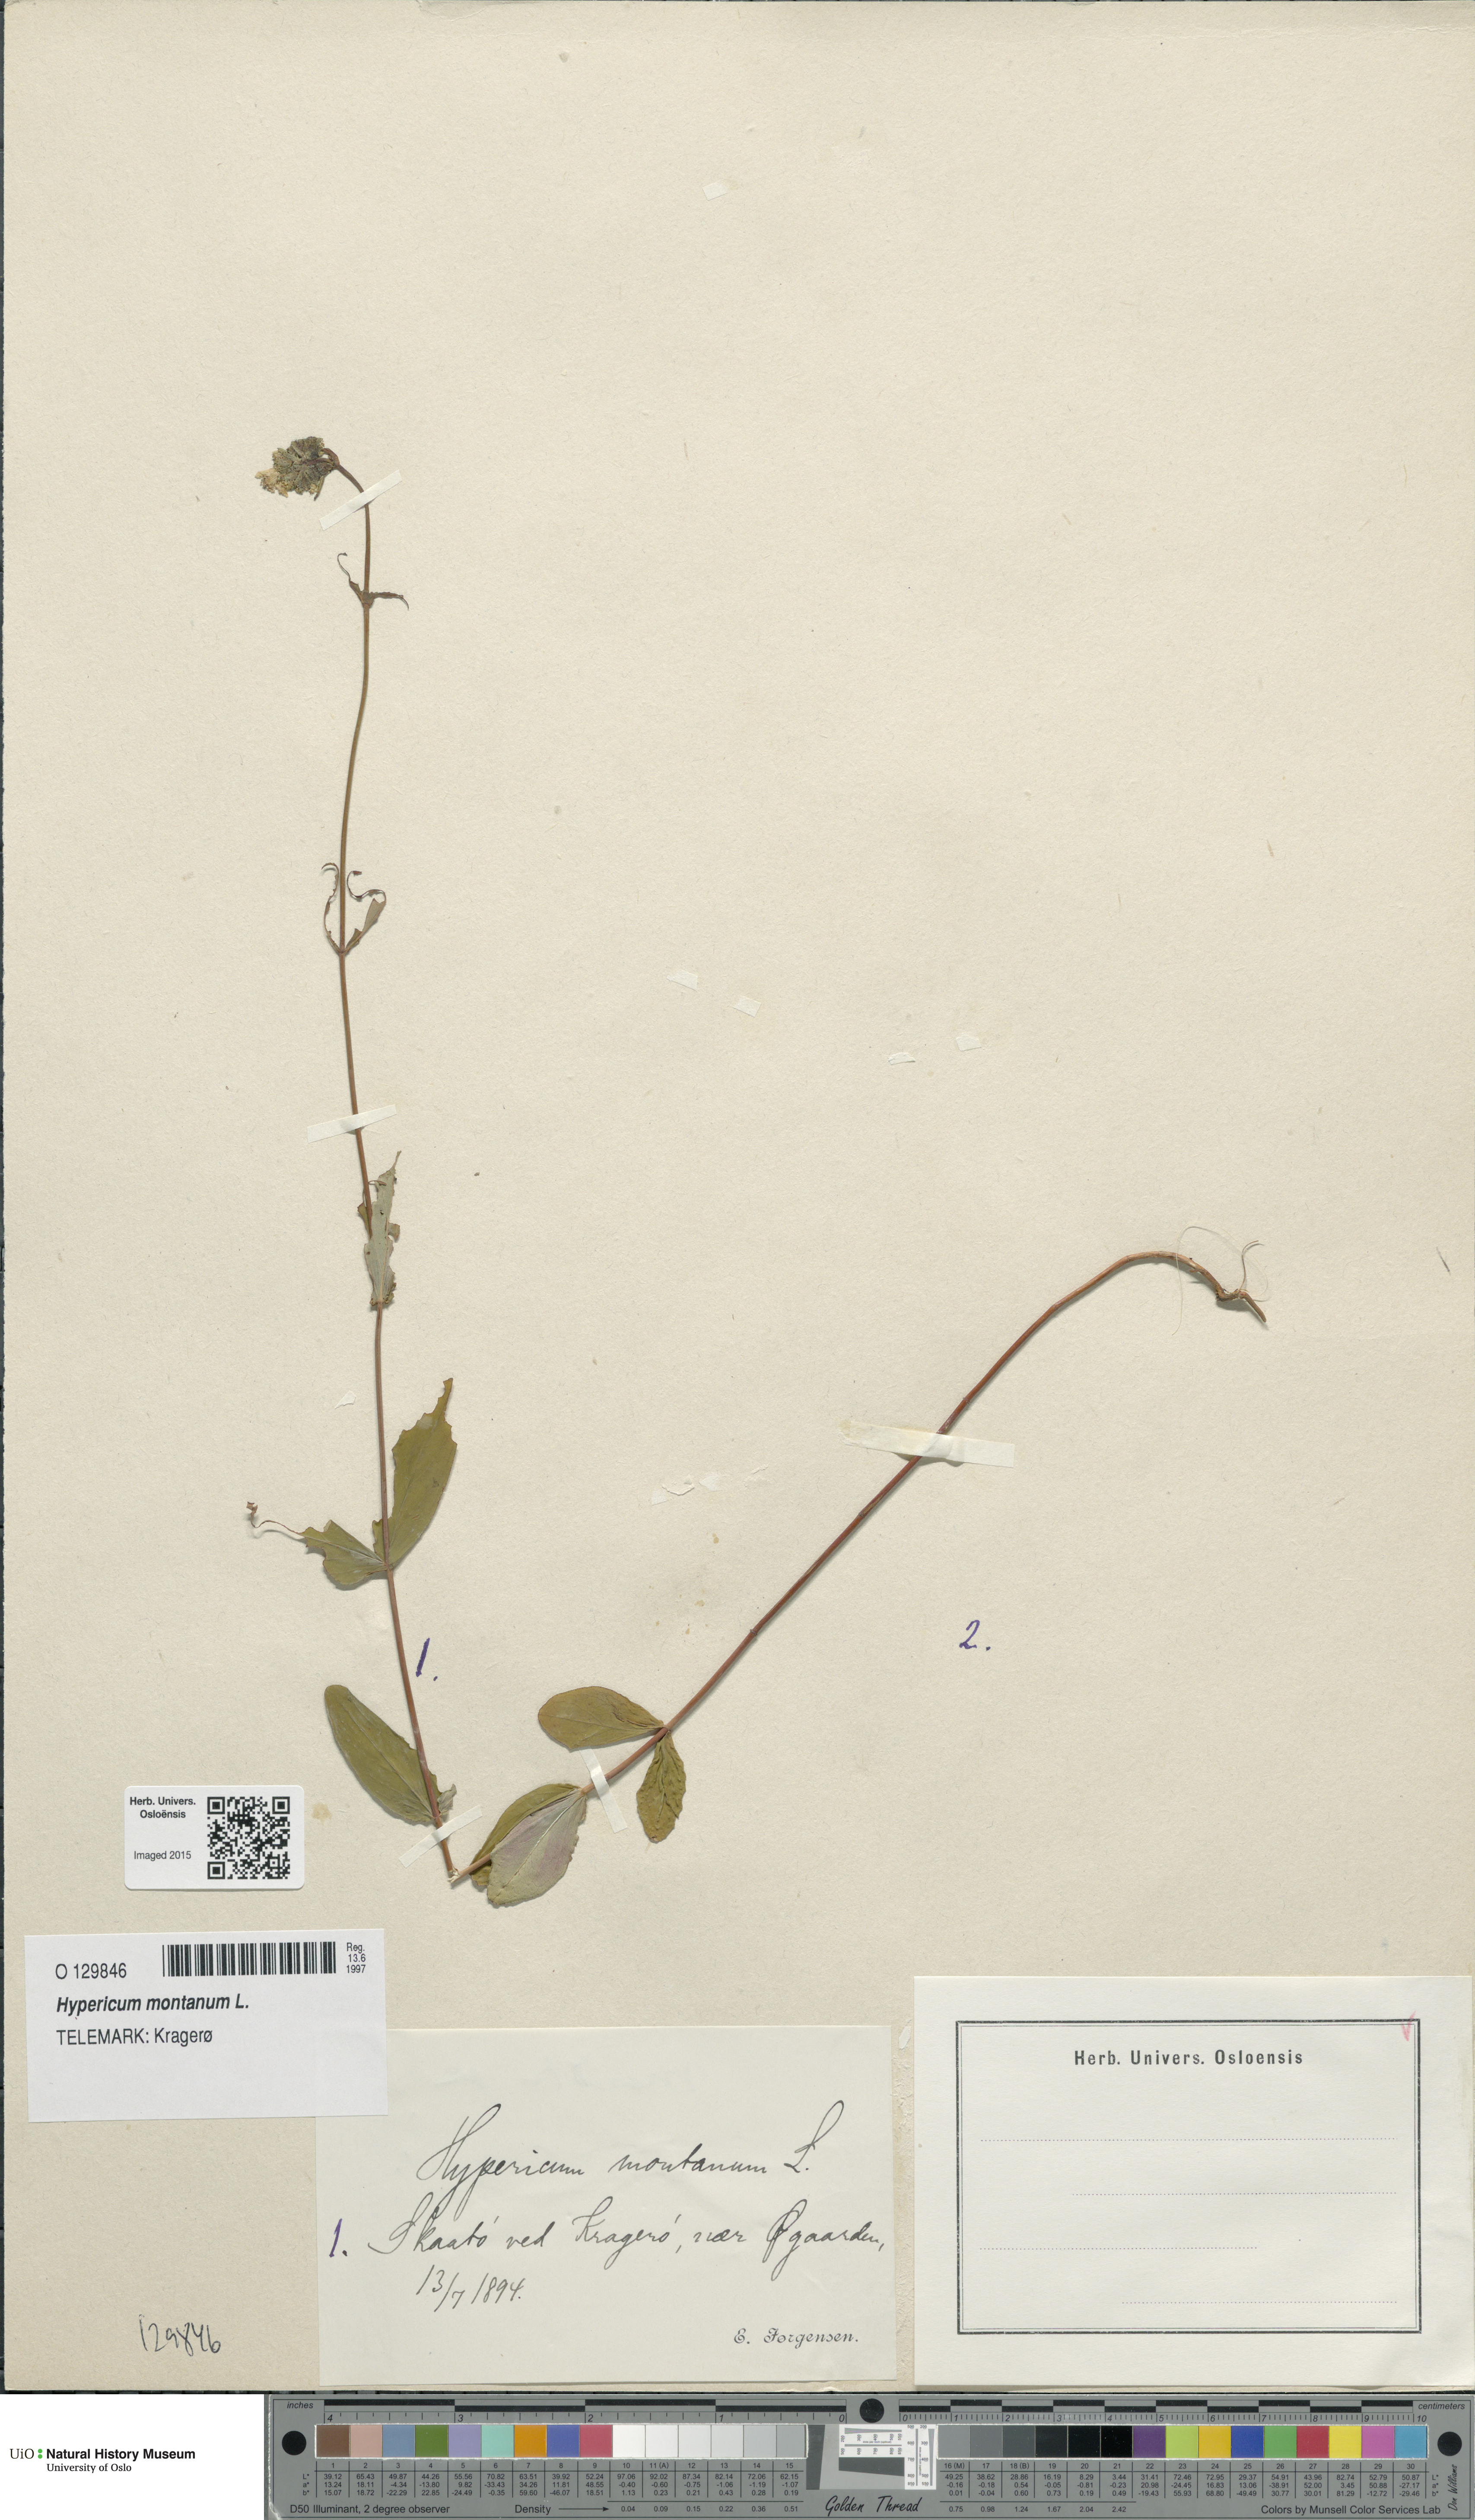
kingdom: Plantae
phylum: Tracheophyta
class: Magnoliopsida
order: Malpighiales
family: Hypericaceae
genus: Hypericum
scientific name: Hypericum montanum
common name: Pale st. john's-wort
